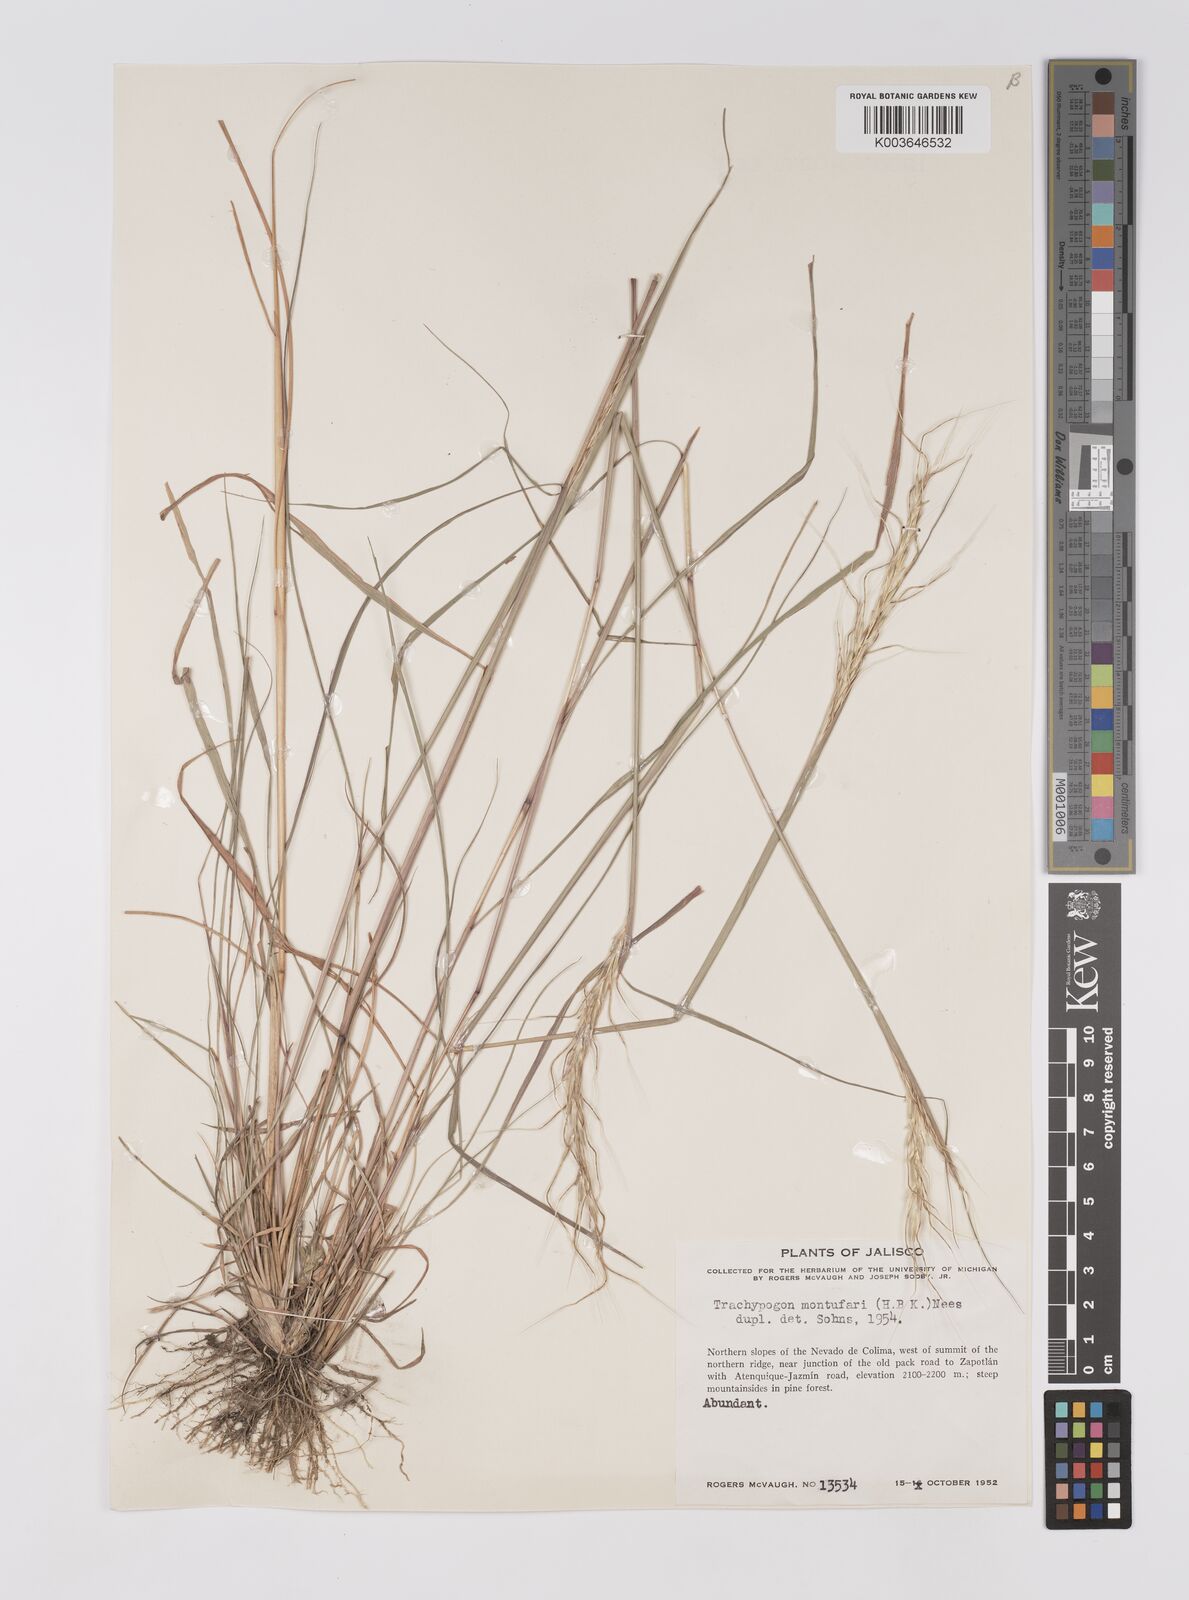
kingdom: Plantae
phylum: Tracheophyta
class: Liliopsida
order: Poales
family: Poaceae
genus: Trachypogon
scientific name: Trachypogon spicatus
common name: Crinkle-awn
